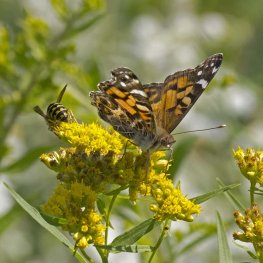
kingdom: Animalia
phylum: Arthropoda
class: Insecta
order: Lepidoptera
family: Nymphalidae
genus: Vanessa
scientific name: Vanessa virginiensis
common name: American Lady
